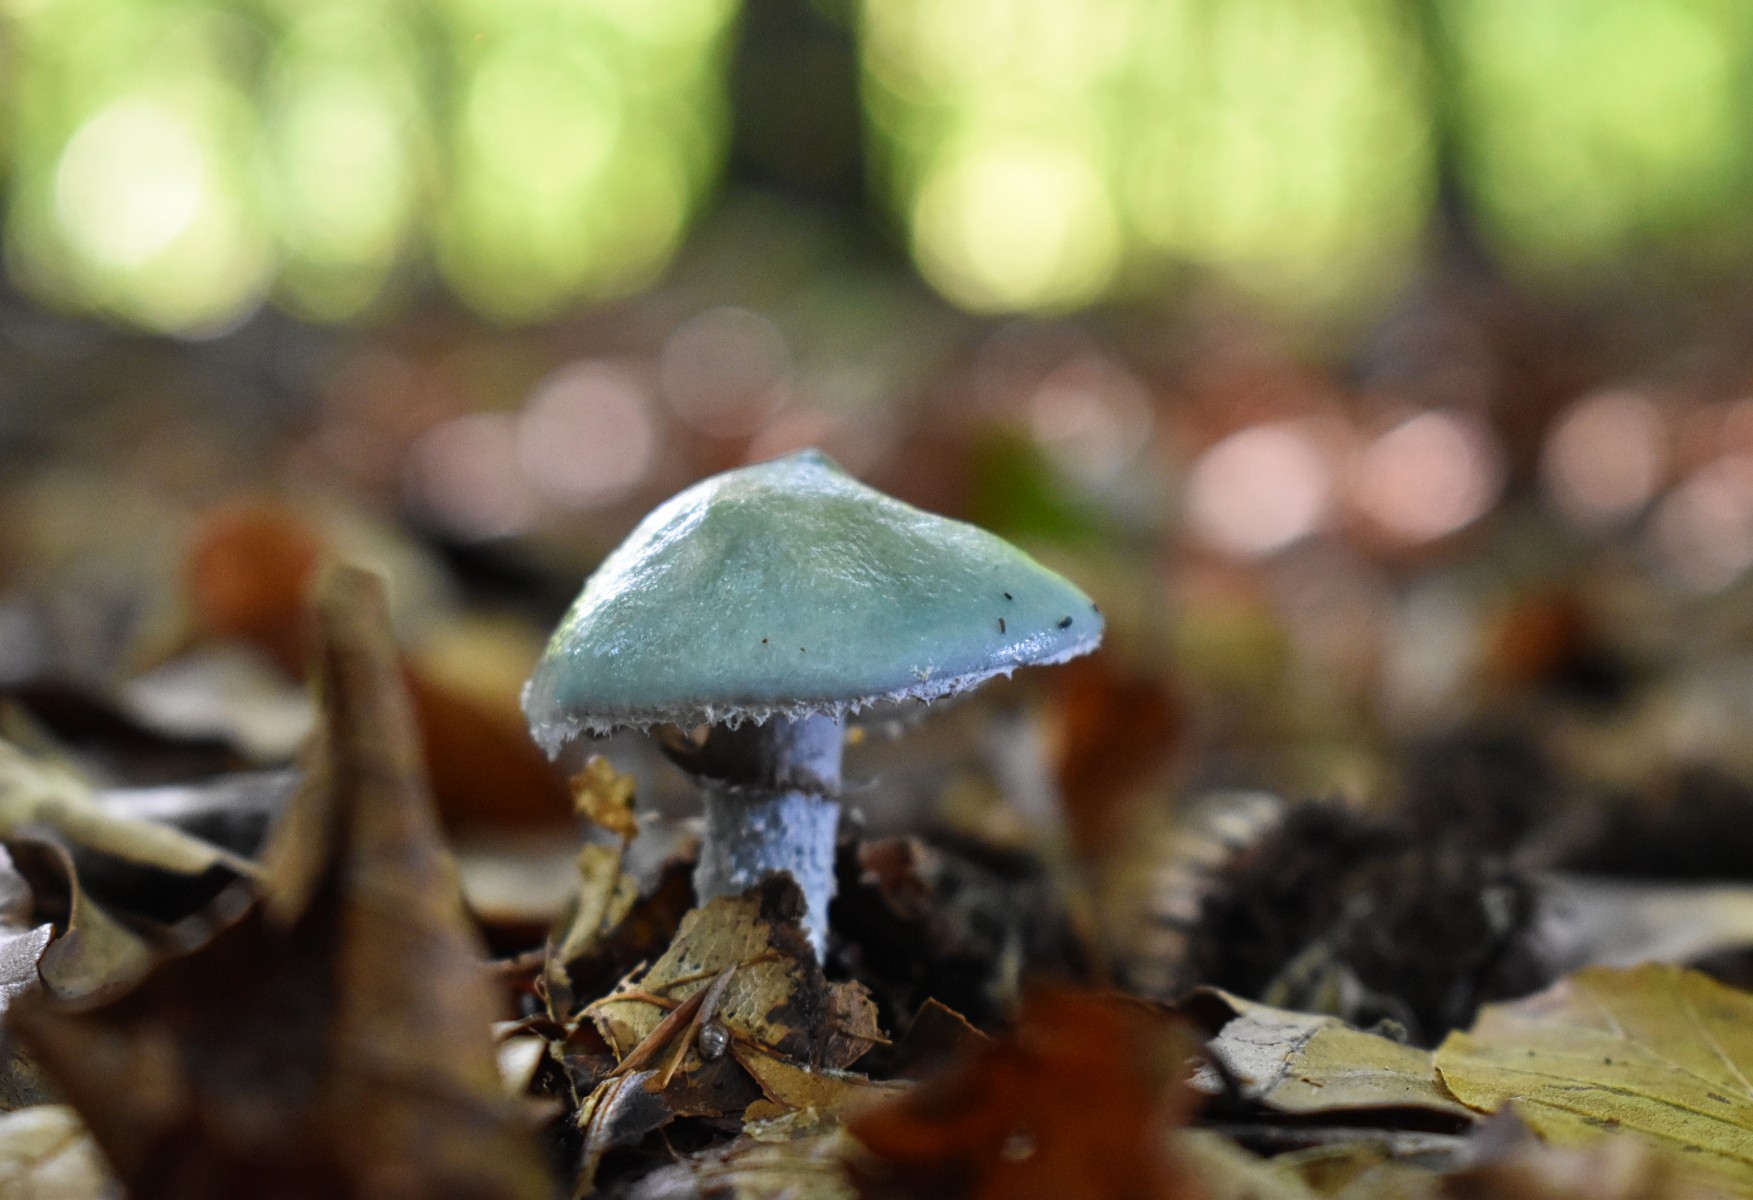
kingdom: Fungi
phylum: Basidiomycota
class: Agaricomycetes
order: Agaricales
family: Strophariaceae
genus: Stropharia
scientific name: Stropharia
